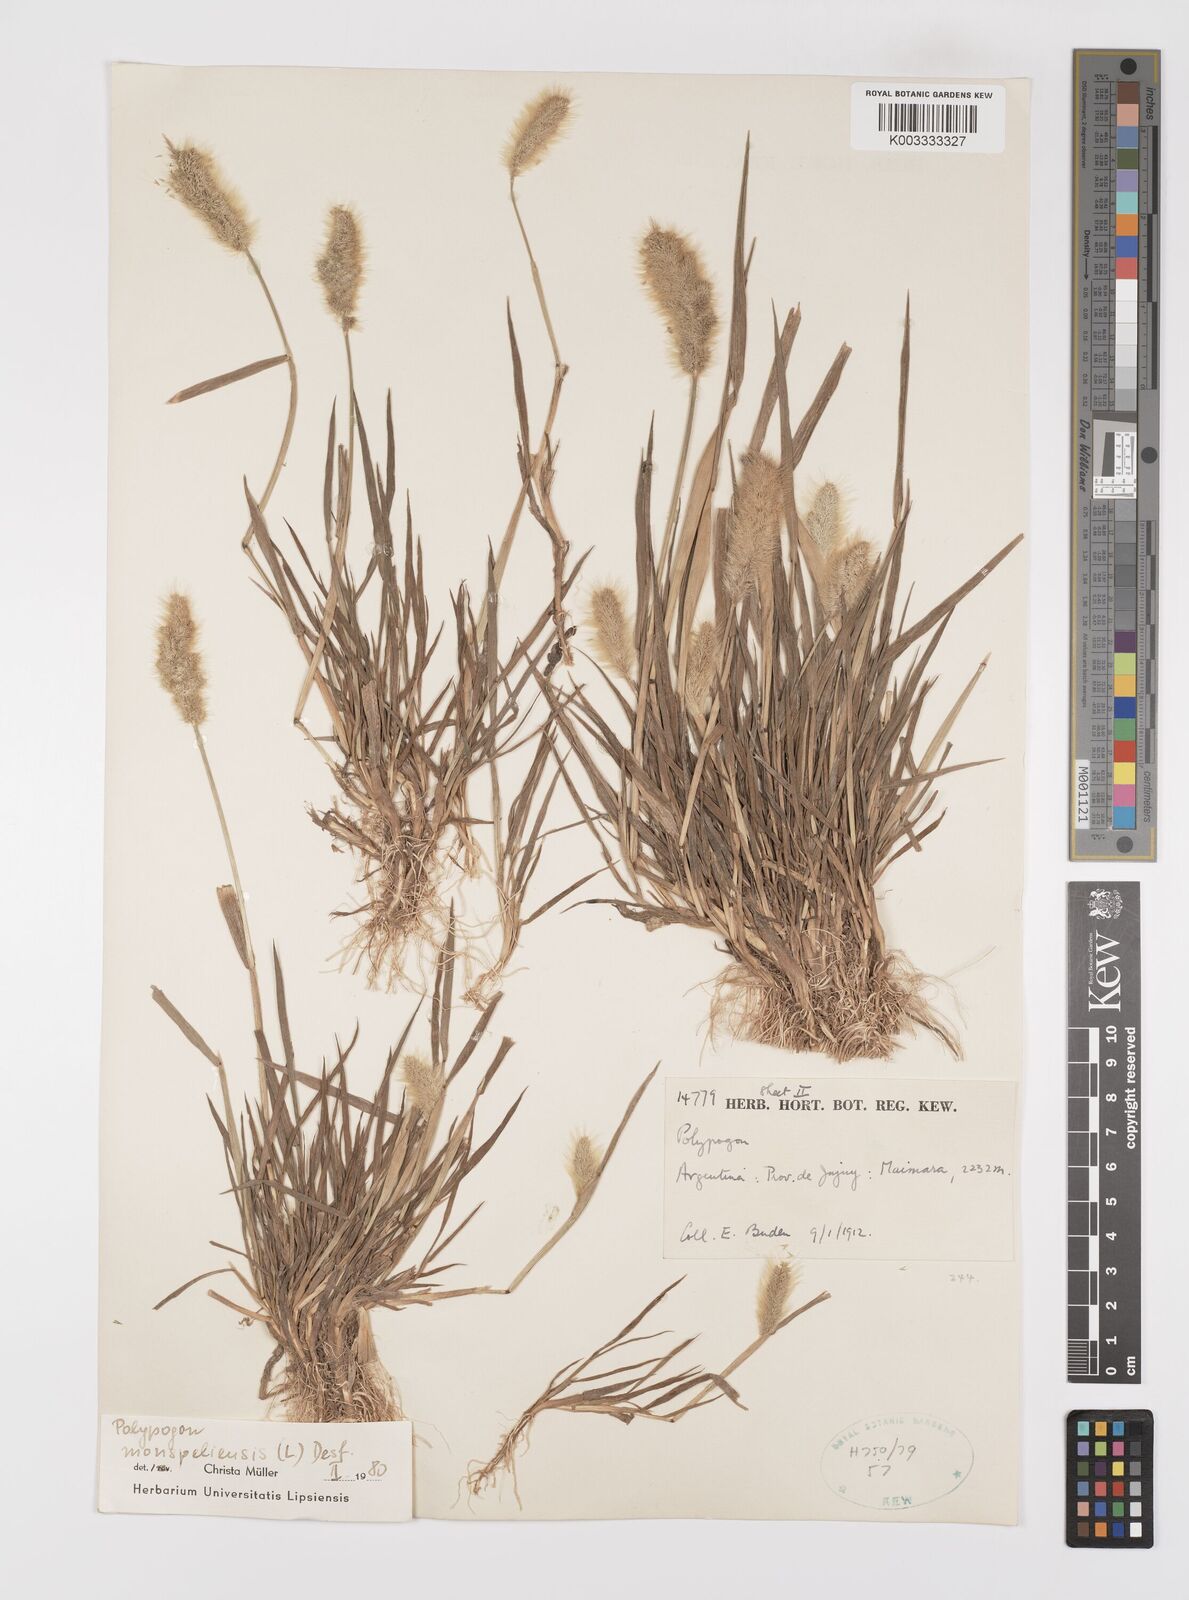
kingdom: Plantae
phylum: Tracheophyta
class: Liliopsida
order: Poales
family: Poaceae
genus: Polypogon
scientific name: Polypogon monspeliensis
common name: Annual rabbitsfoot grass
